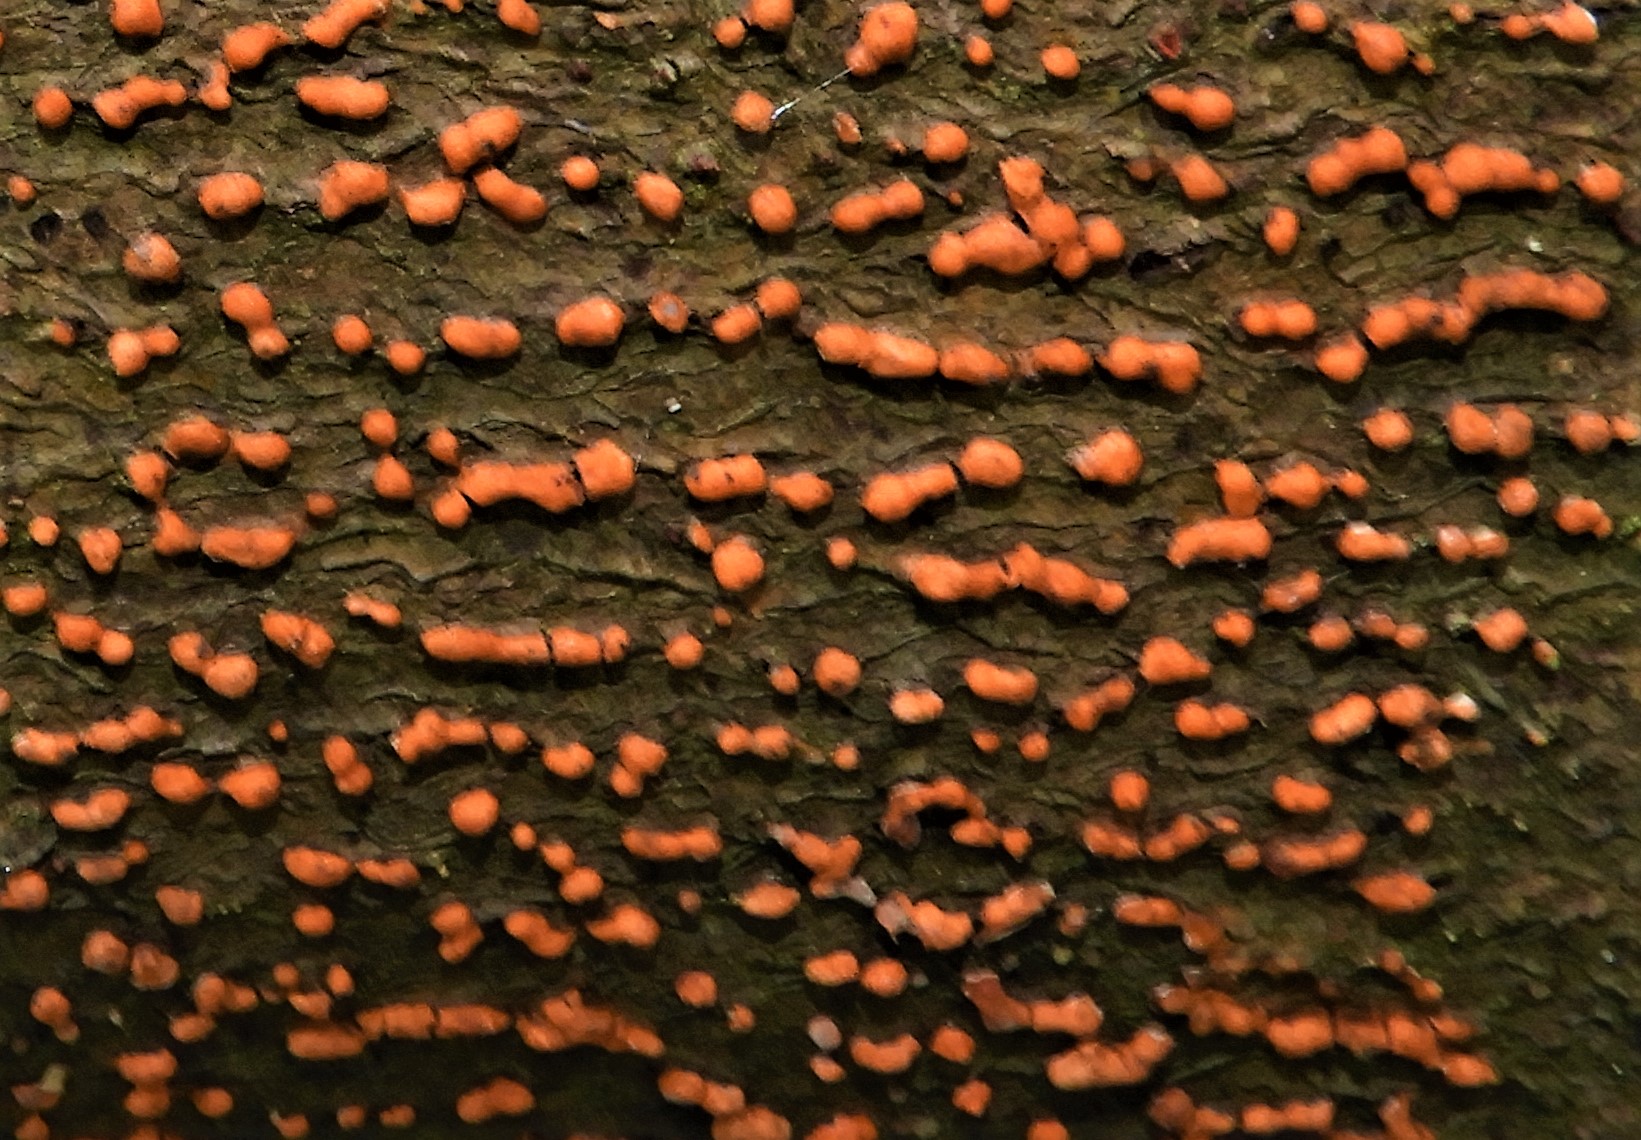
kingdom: Fungi
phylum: Ascomycota
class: Sordariomycetes
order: Hypocreales
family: Nectriaceae
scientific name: Nectriaceae
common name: cinnobersvampfamilien
